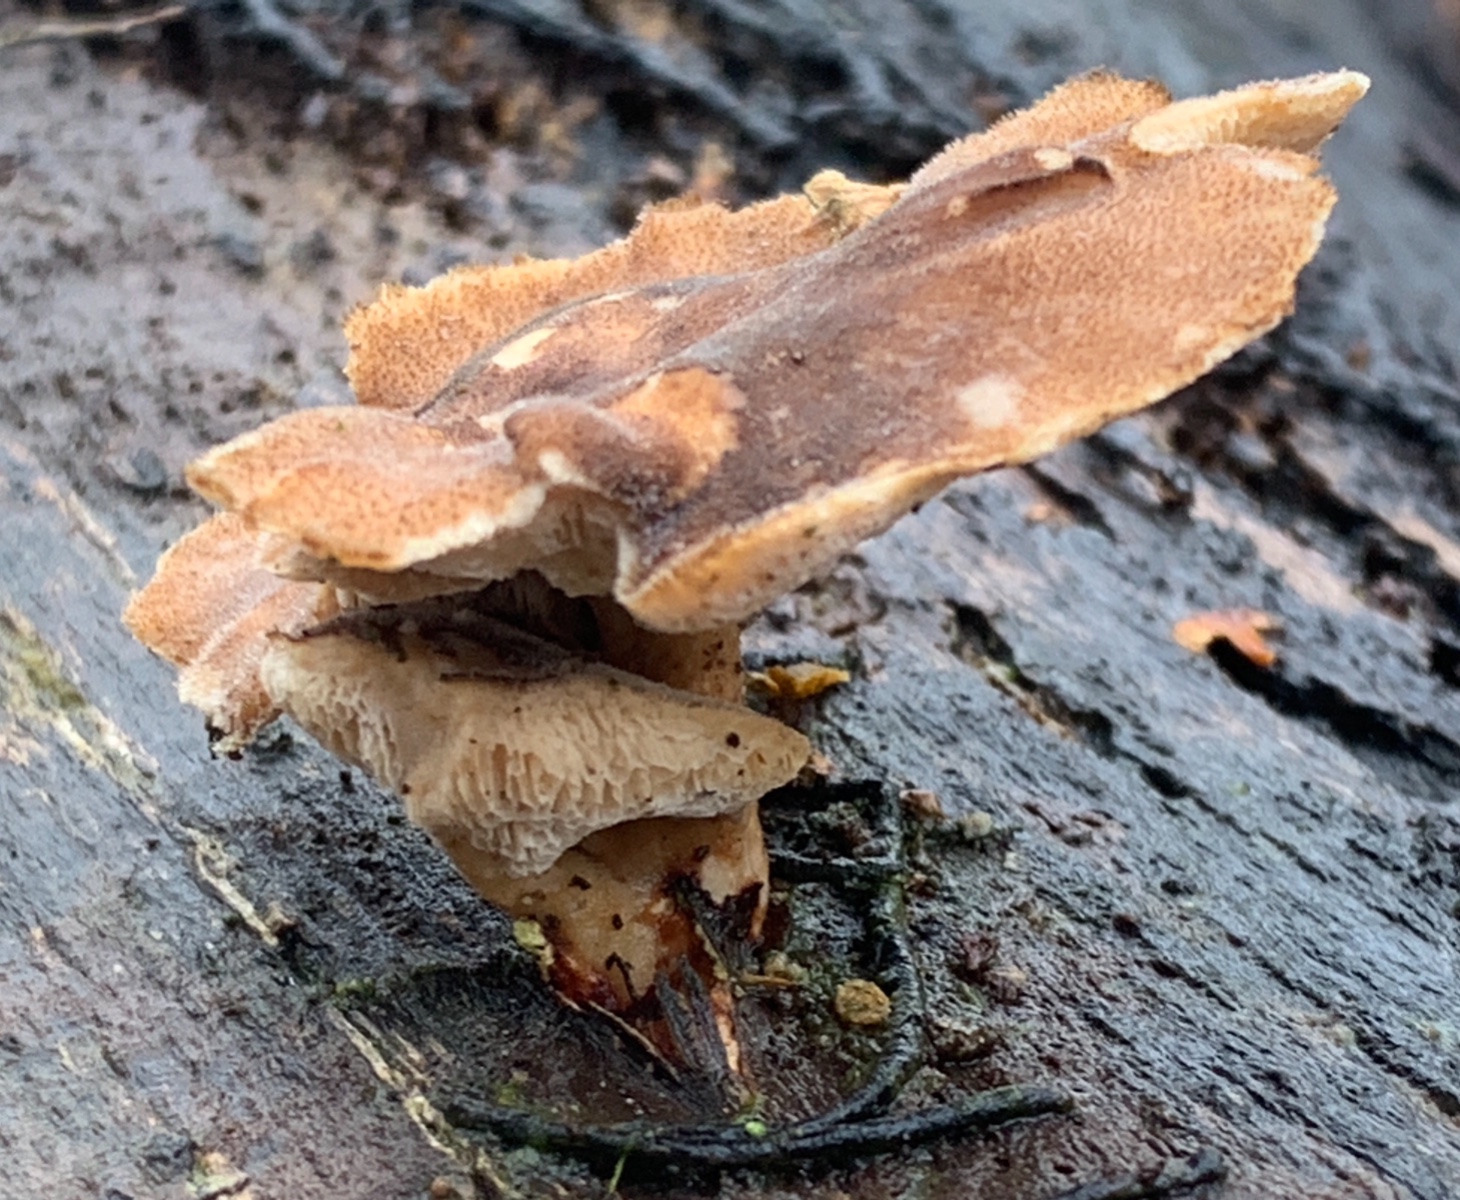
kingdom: Fungi
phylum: Basidiomycota
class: Agaricomycetes
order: Polyporales
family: Polyporaceae
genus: Lentinus
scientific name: Lentinus brumalis
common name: vinter-stilkporesvamp
